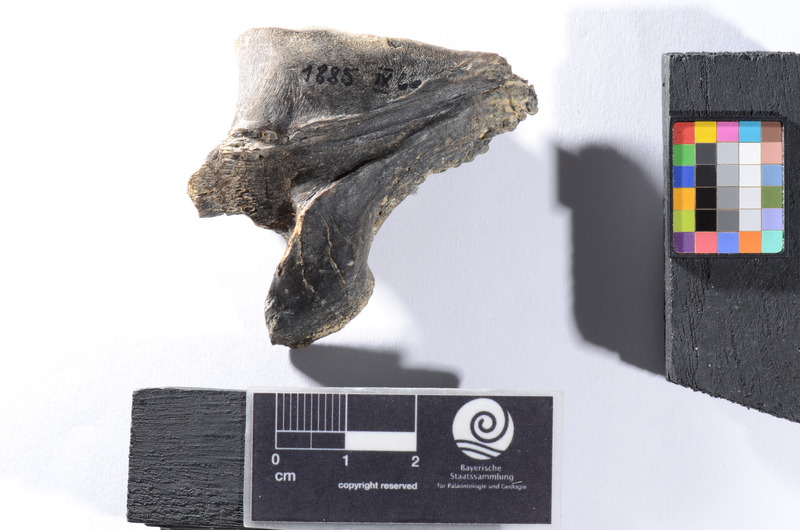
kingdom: Animalia
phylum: Chordata
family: Pycnodontes
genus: Macromesodon
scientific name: Macromesodon macropterus
